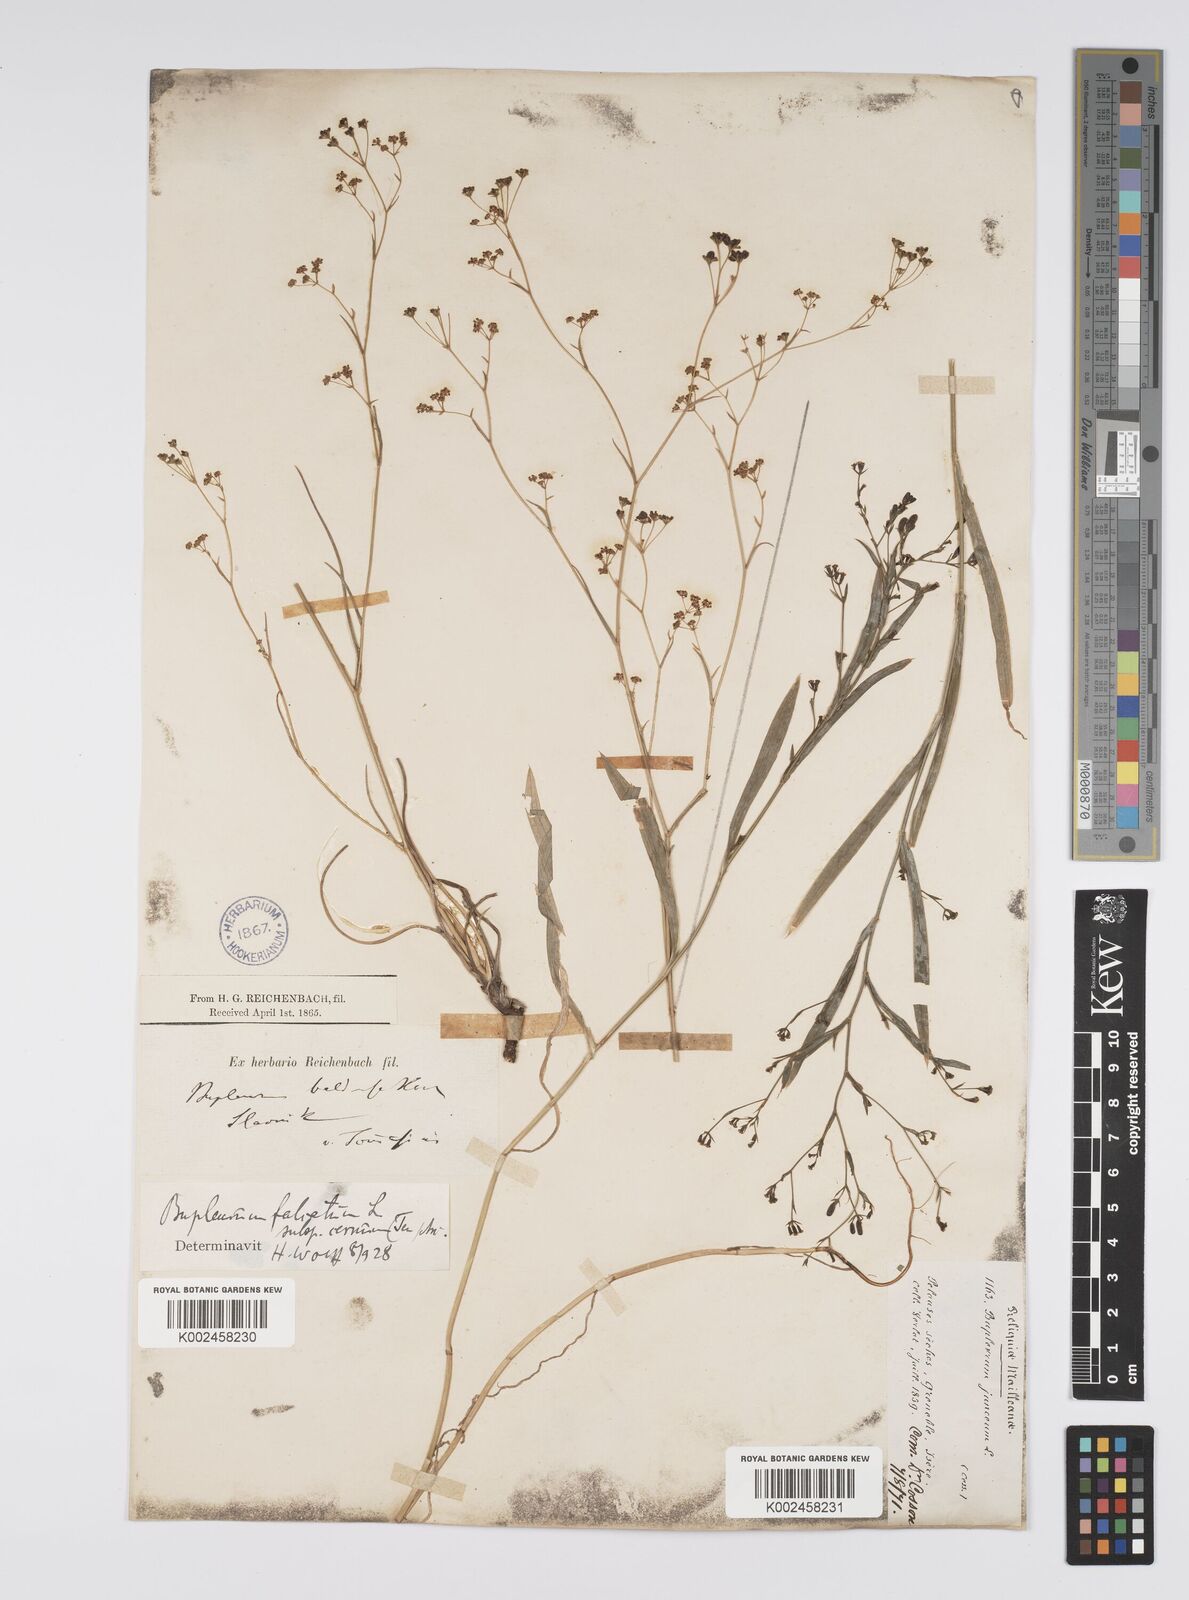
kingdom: Plantae
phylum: Tracheophyta
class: Magnoliopsida
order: Apiales
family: Apiaceae
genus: Bupleurum
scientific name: Bupleurum praealtum
